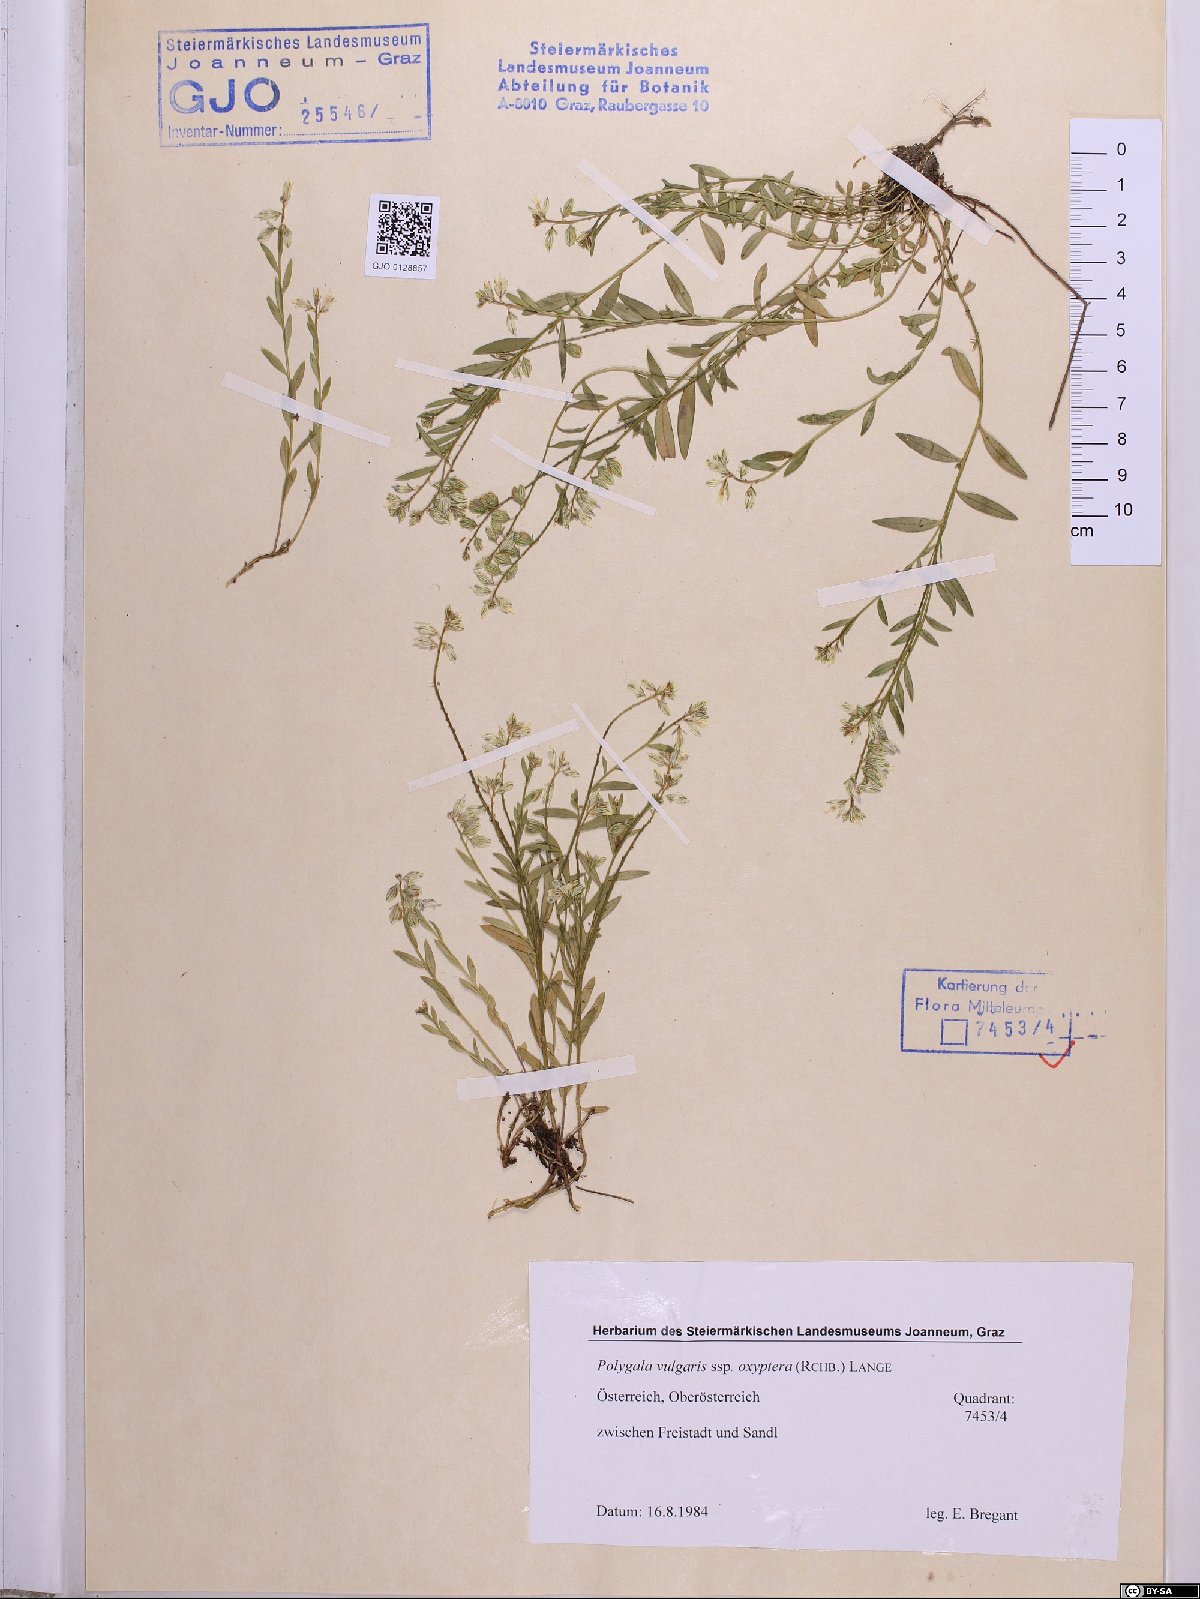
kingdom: Plantae
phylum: Tracheophyta
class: Magnoliopsida
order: Fabales
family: Polygalaceae
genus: Polygala
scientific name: Polygala vulgaris
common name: Common milkwort
